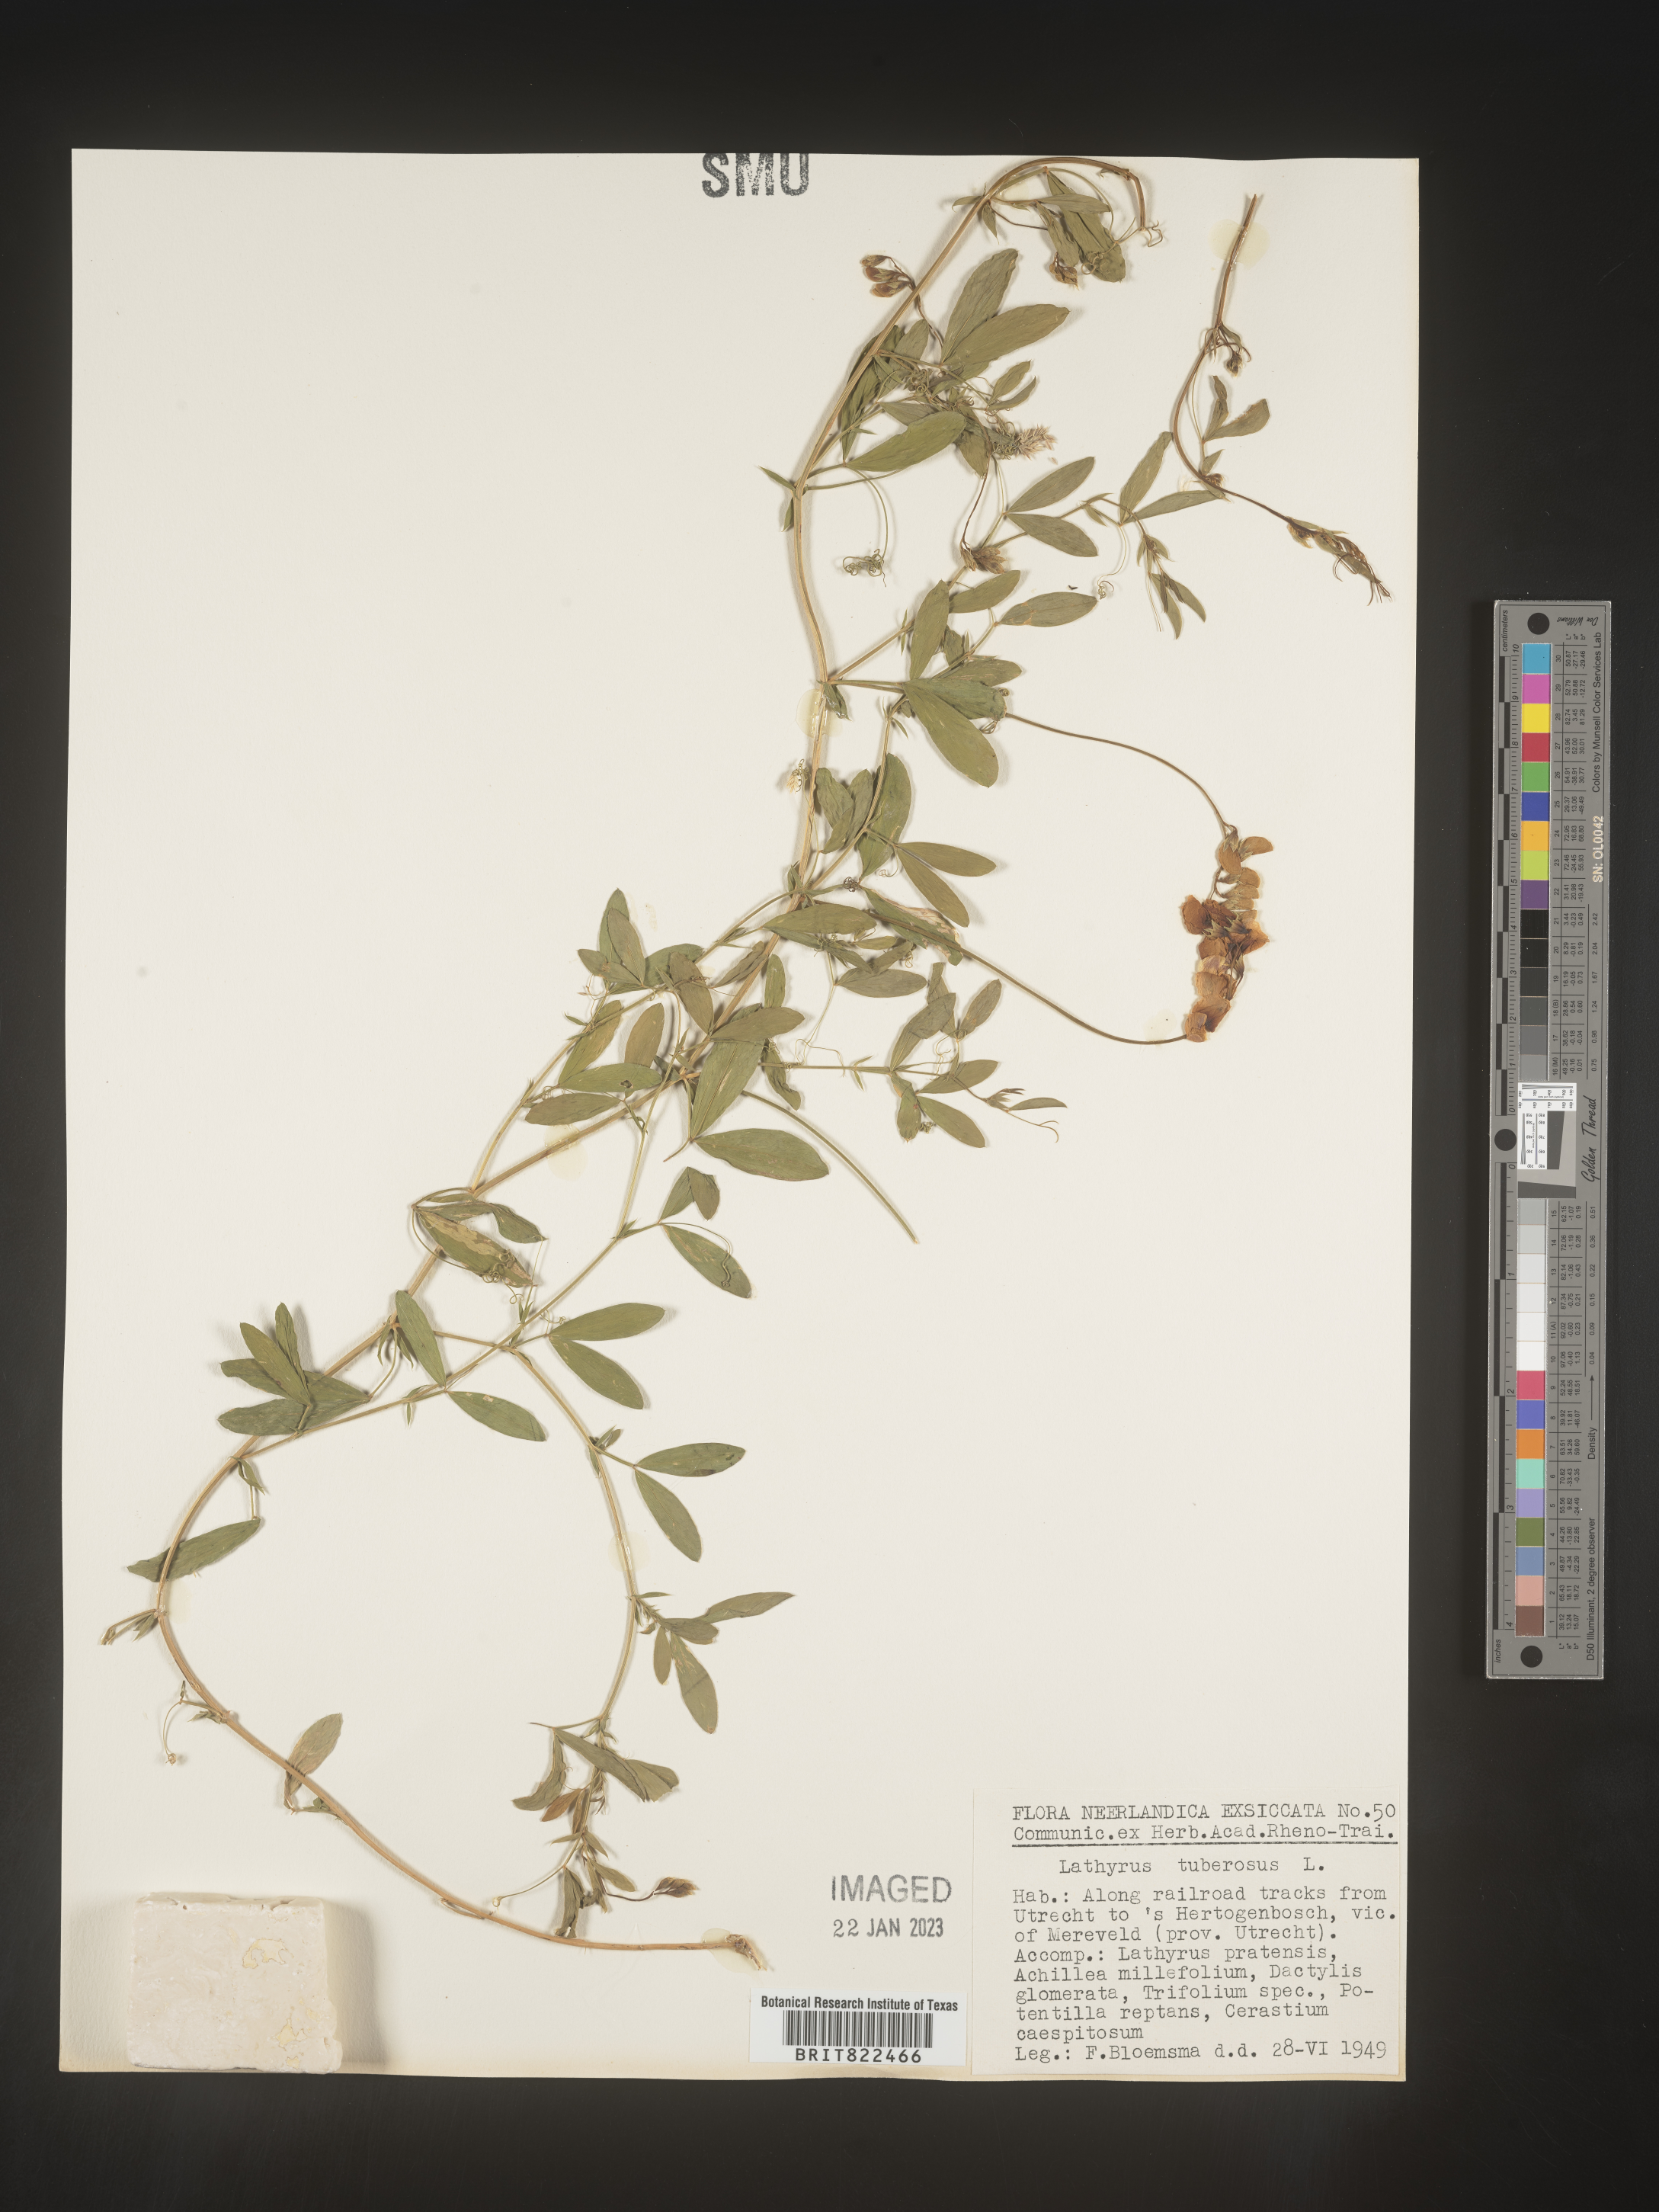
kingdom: Plantae
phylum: Tracheophyta
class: Magnoliopsida
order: Fabales
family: Fabaceae
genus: Lathyrus
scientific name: Lathyrus
